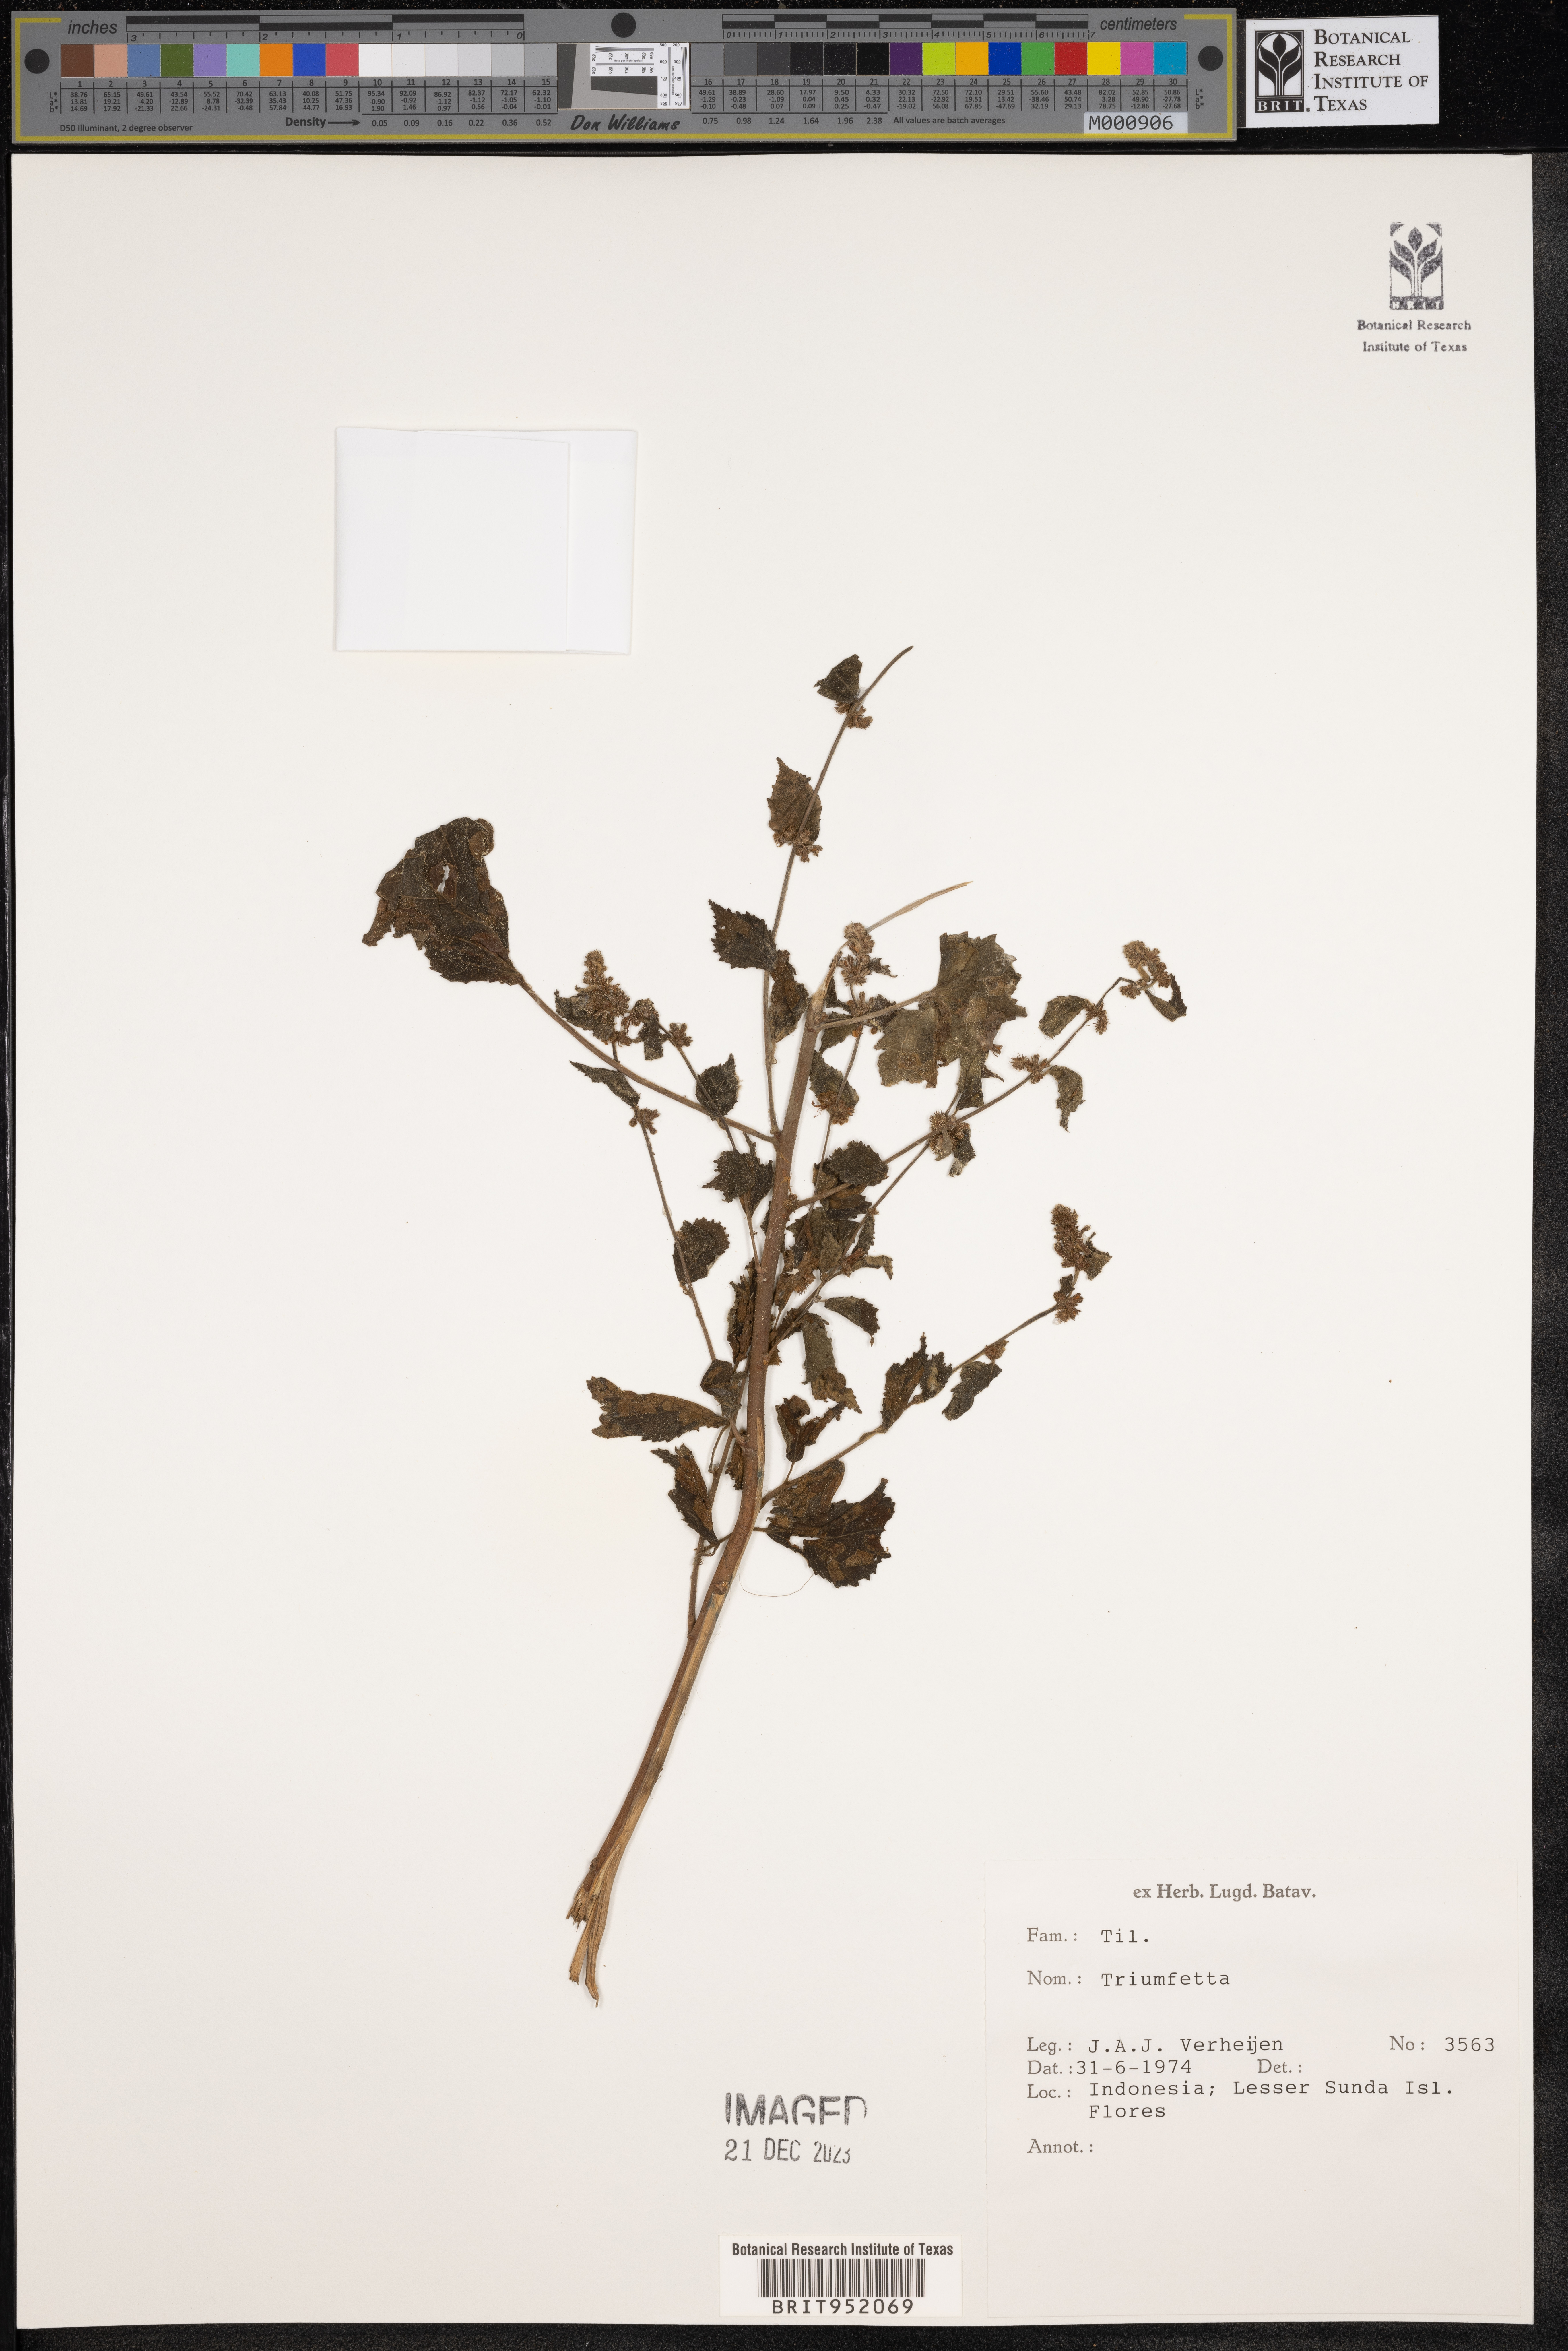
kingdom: Plantae
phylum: Tracheophyta
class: Magnoliopsida
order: Malvales
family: Malvaceae
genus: Triumfetta
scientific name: Triumfetta
